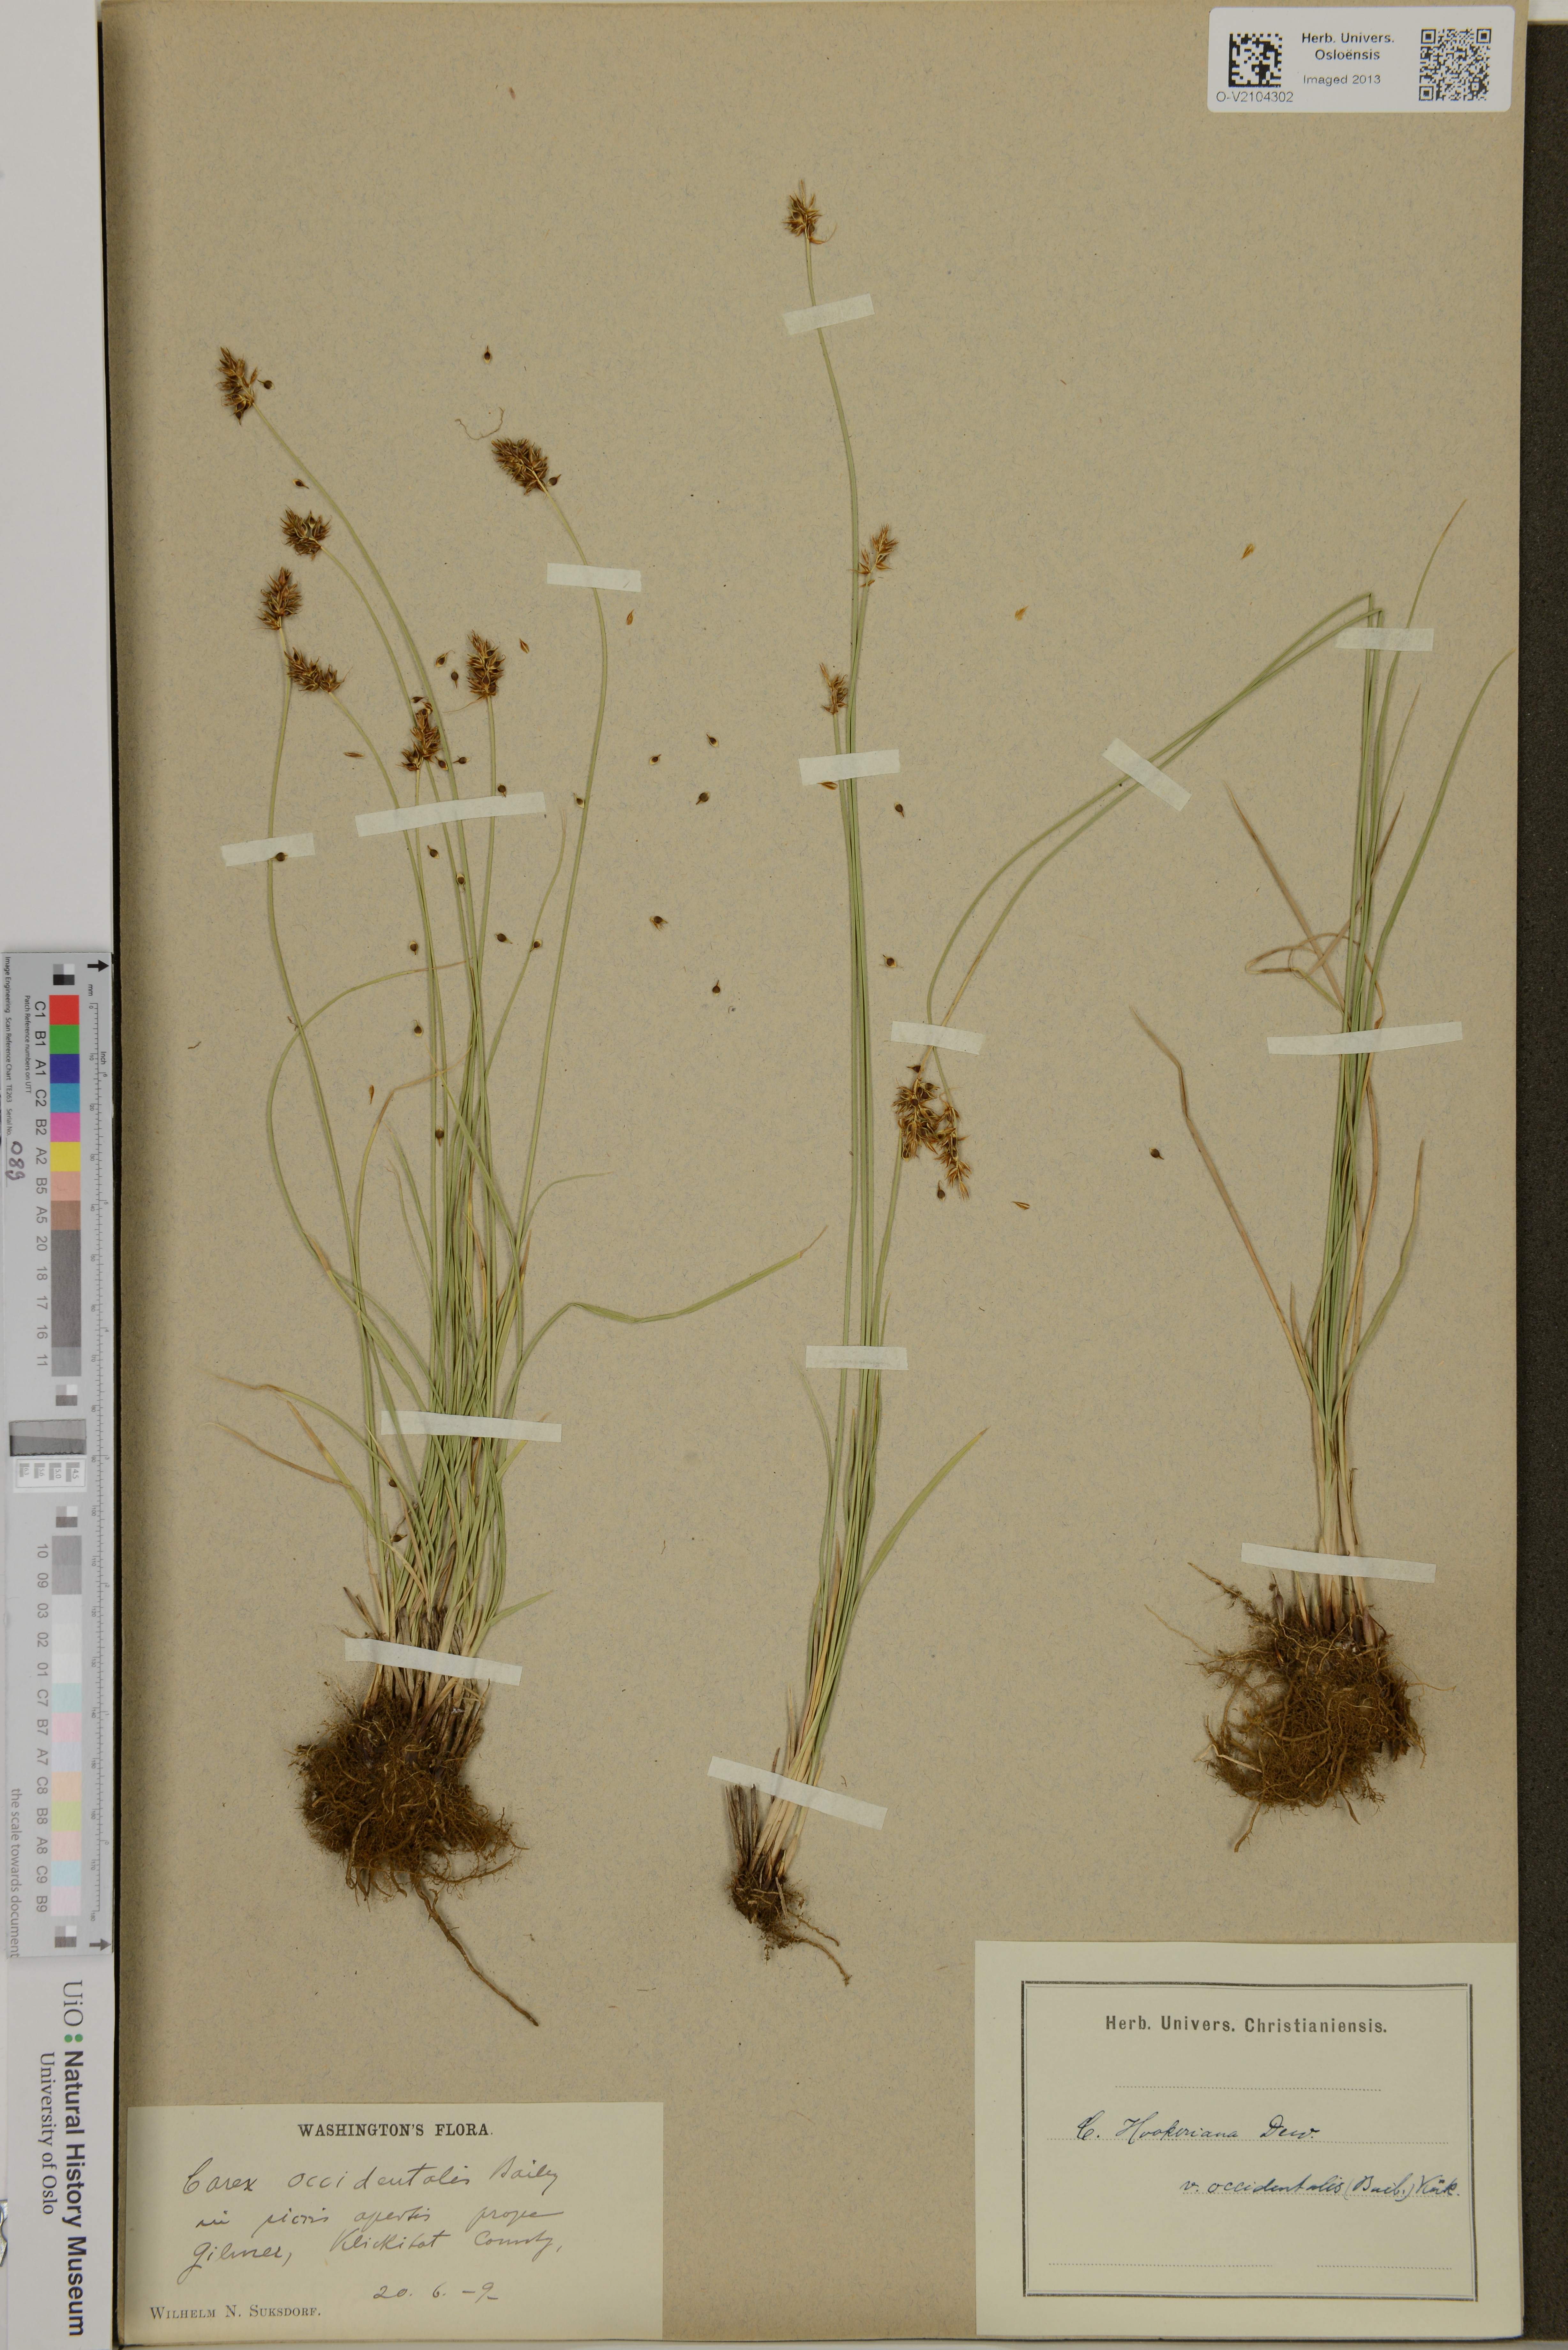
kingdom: Plantae
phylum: Tracheophyta
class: Liliopsida
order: Poales
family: Cyperaceae
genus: Carex
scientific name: Carex hookeriana
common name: Hooker's sedge
